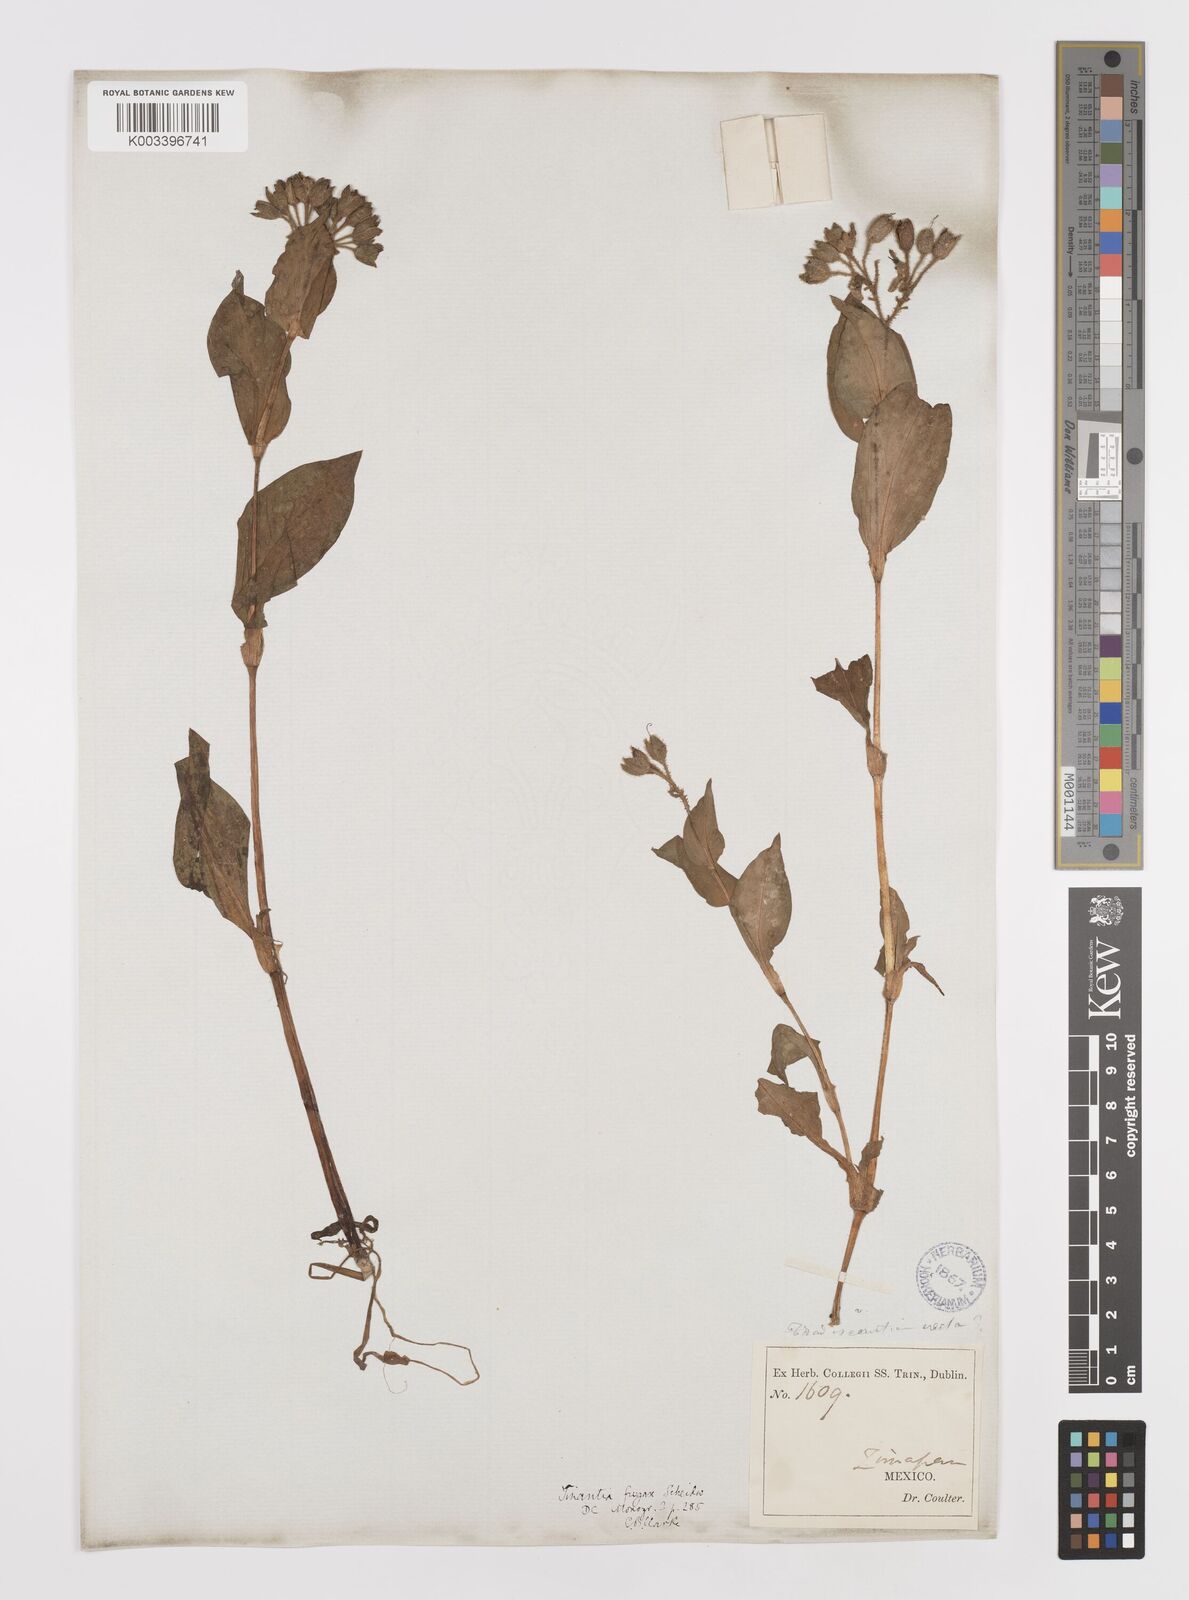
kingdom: Plantae
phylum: Tracheophyta
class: Liliopsida
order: Commelinales
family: Commelinaceae
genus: Tinantia
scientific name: Tinantia erecta
